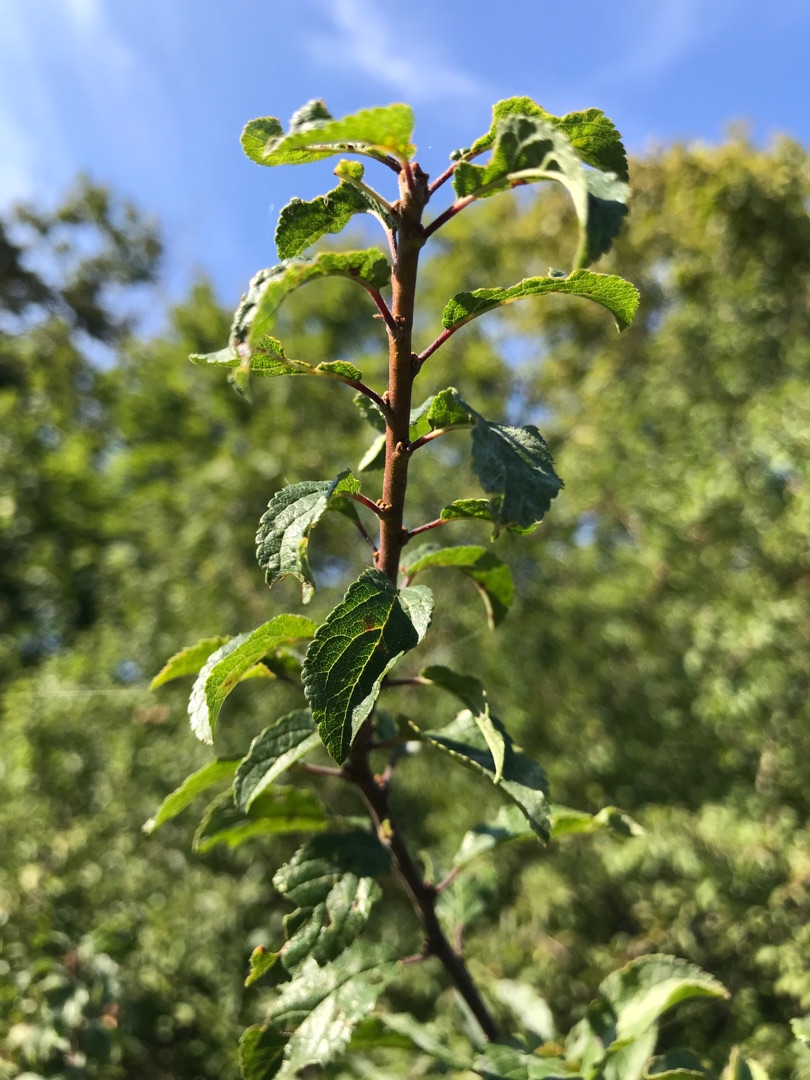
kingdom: Plantae
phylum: Tracheophyta
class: Magnoliopsida
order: Rosales
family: Rosaceae
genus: Prunus
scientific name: Prunus spinosa
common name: Slåen
